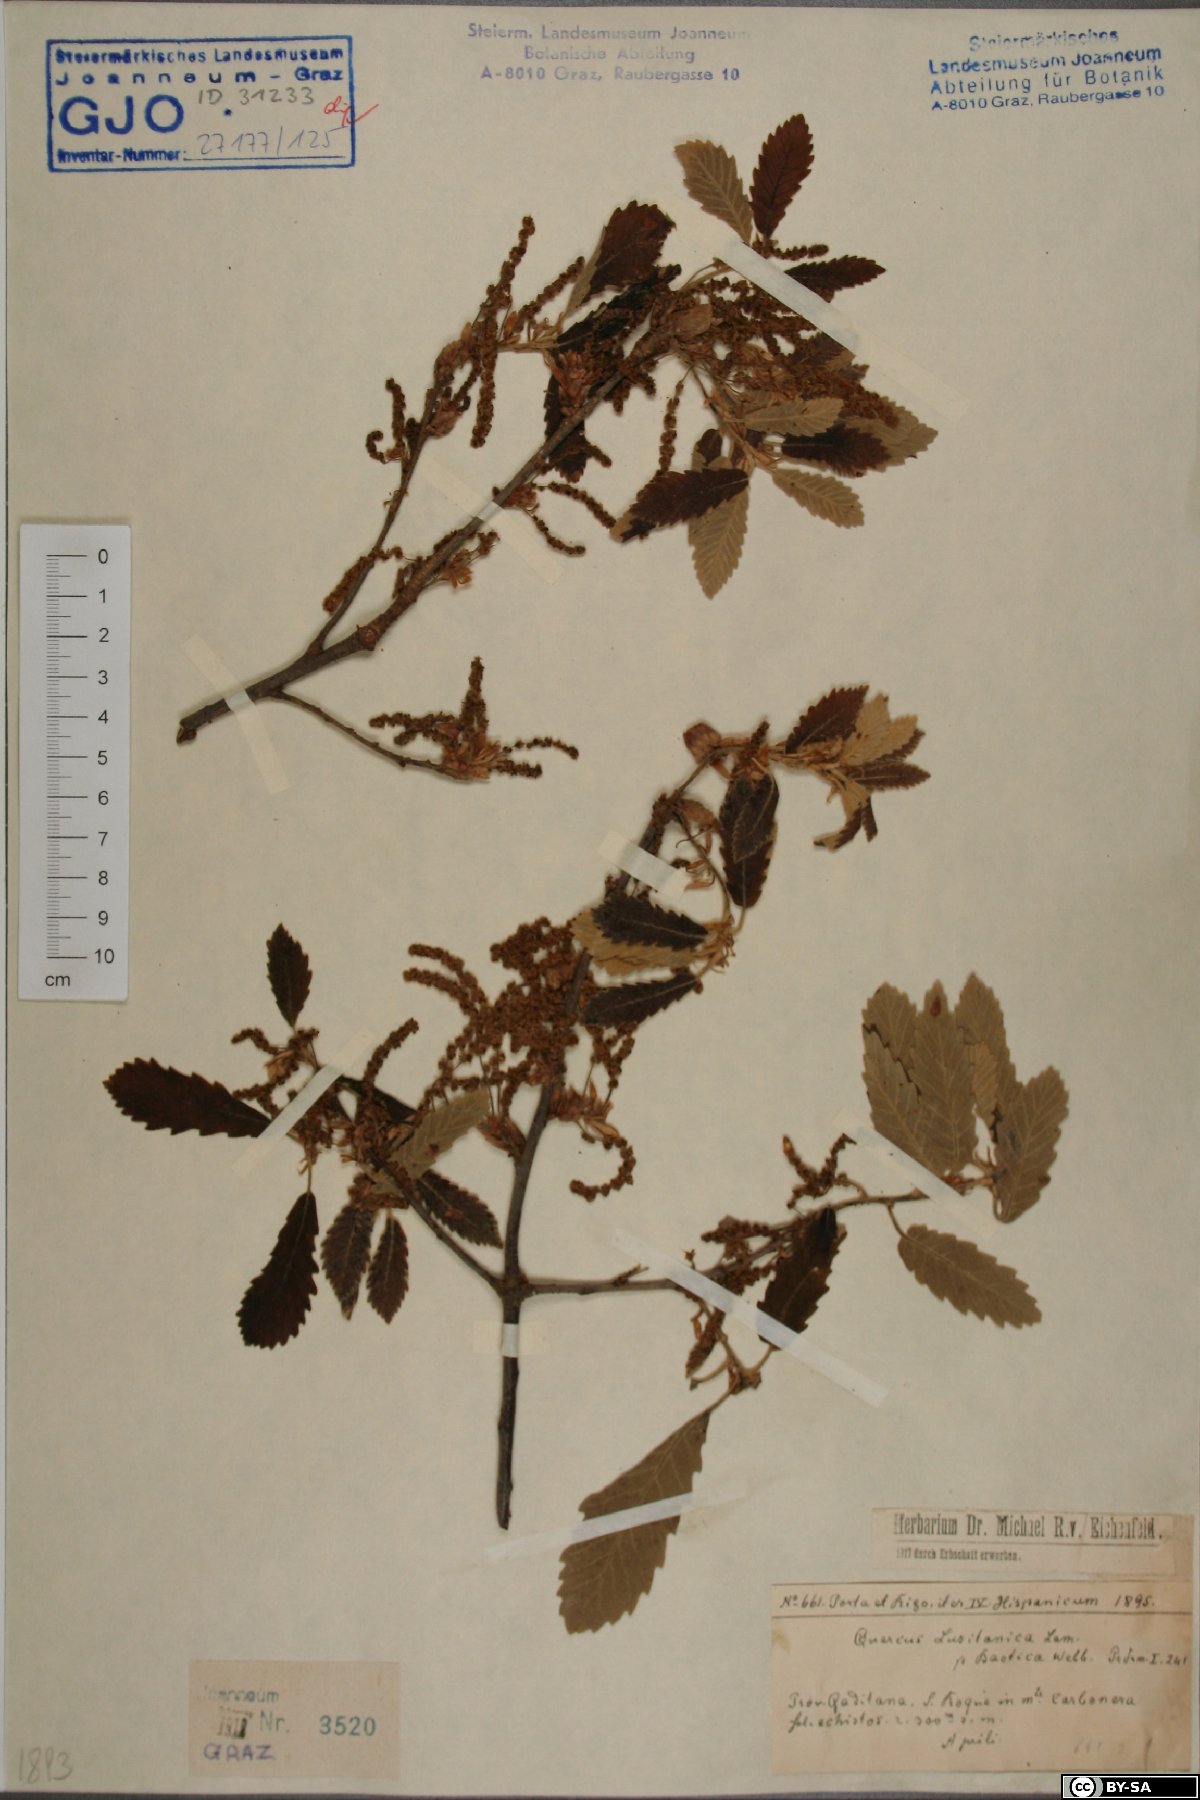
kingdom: Plantae
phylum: Tracheophyta
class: Magnoliopsida
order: Fagales
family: Fagaceae
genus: Quercus
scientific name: Quercus faginea
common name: Gall oak tree
